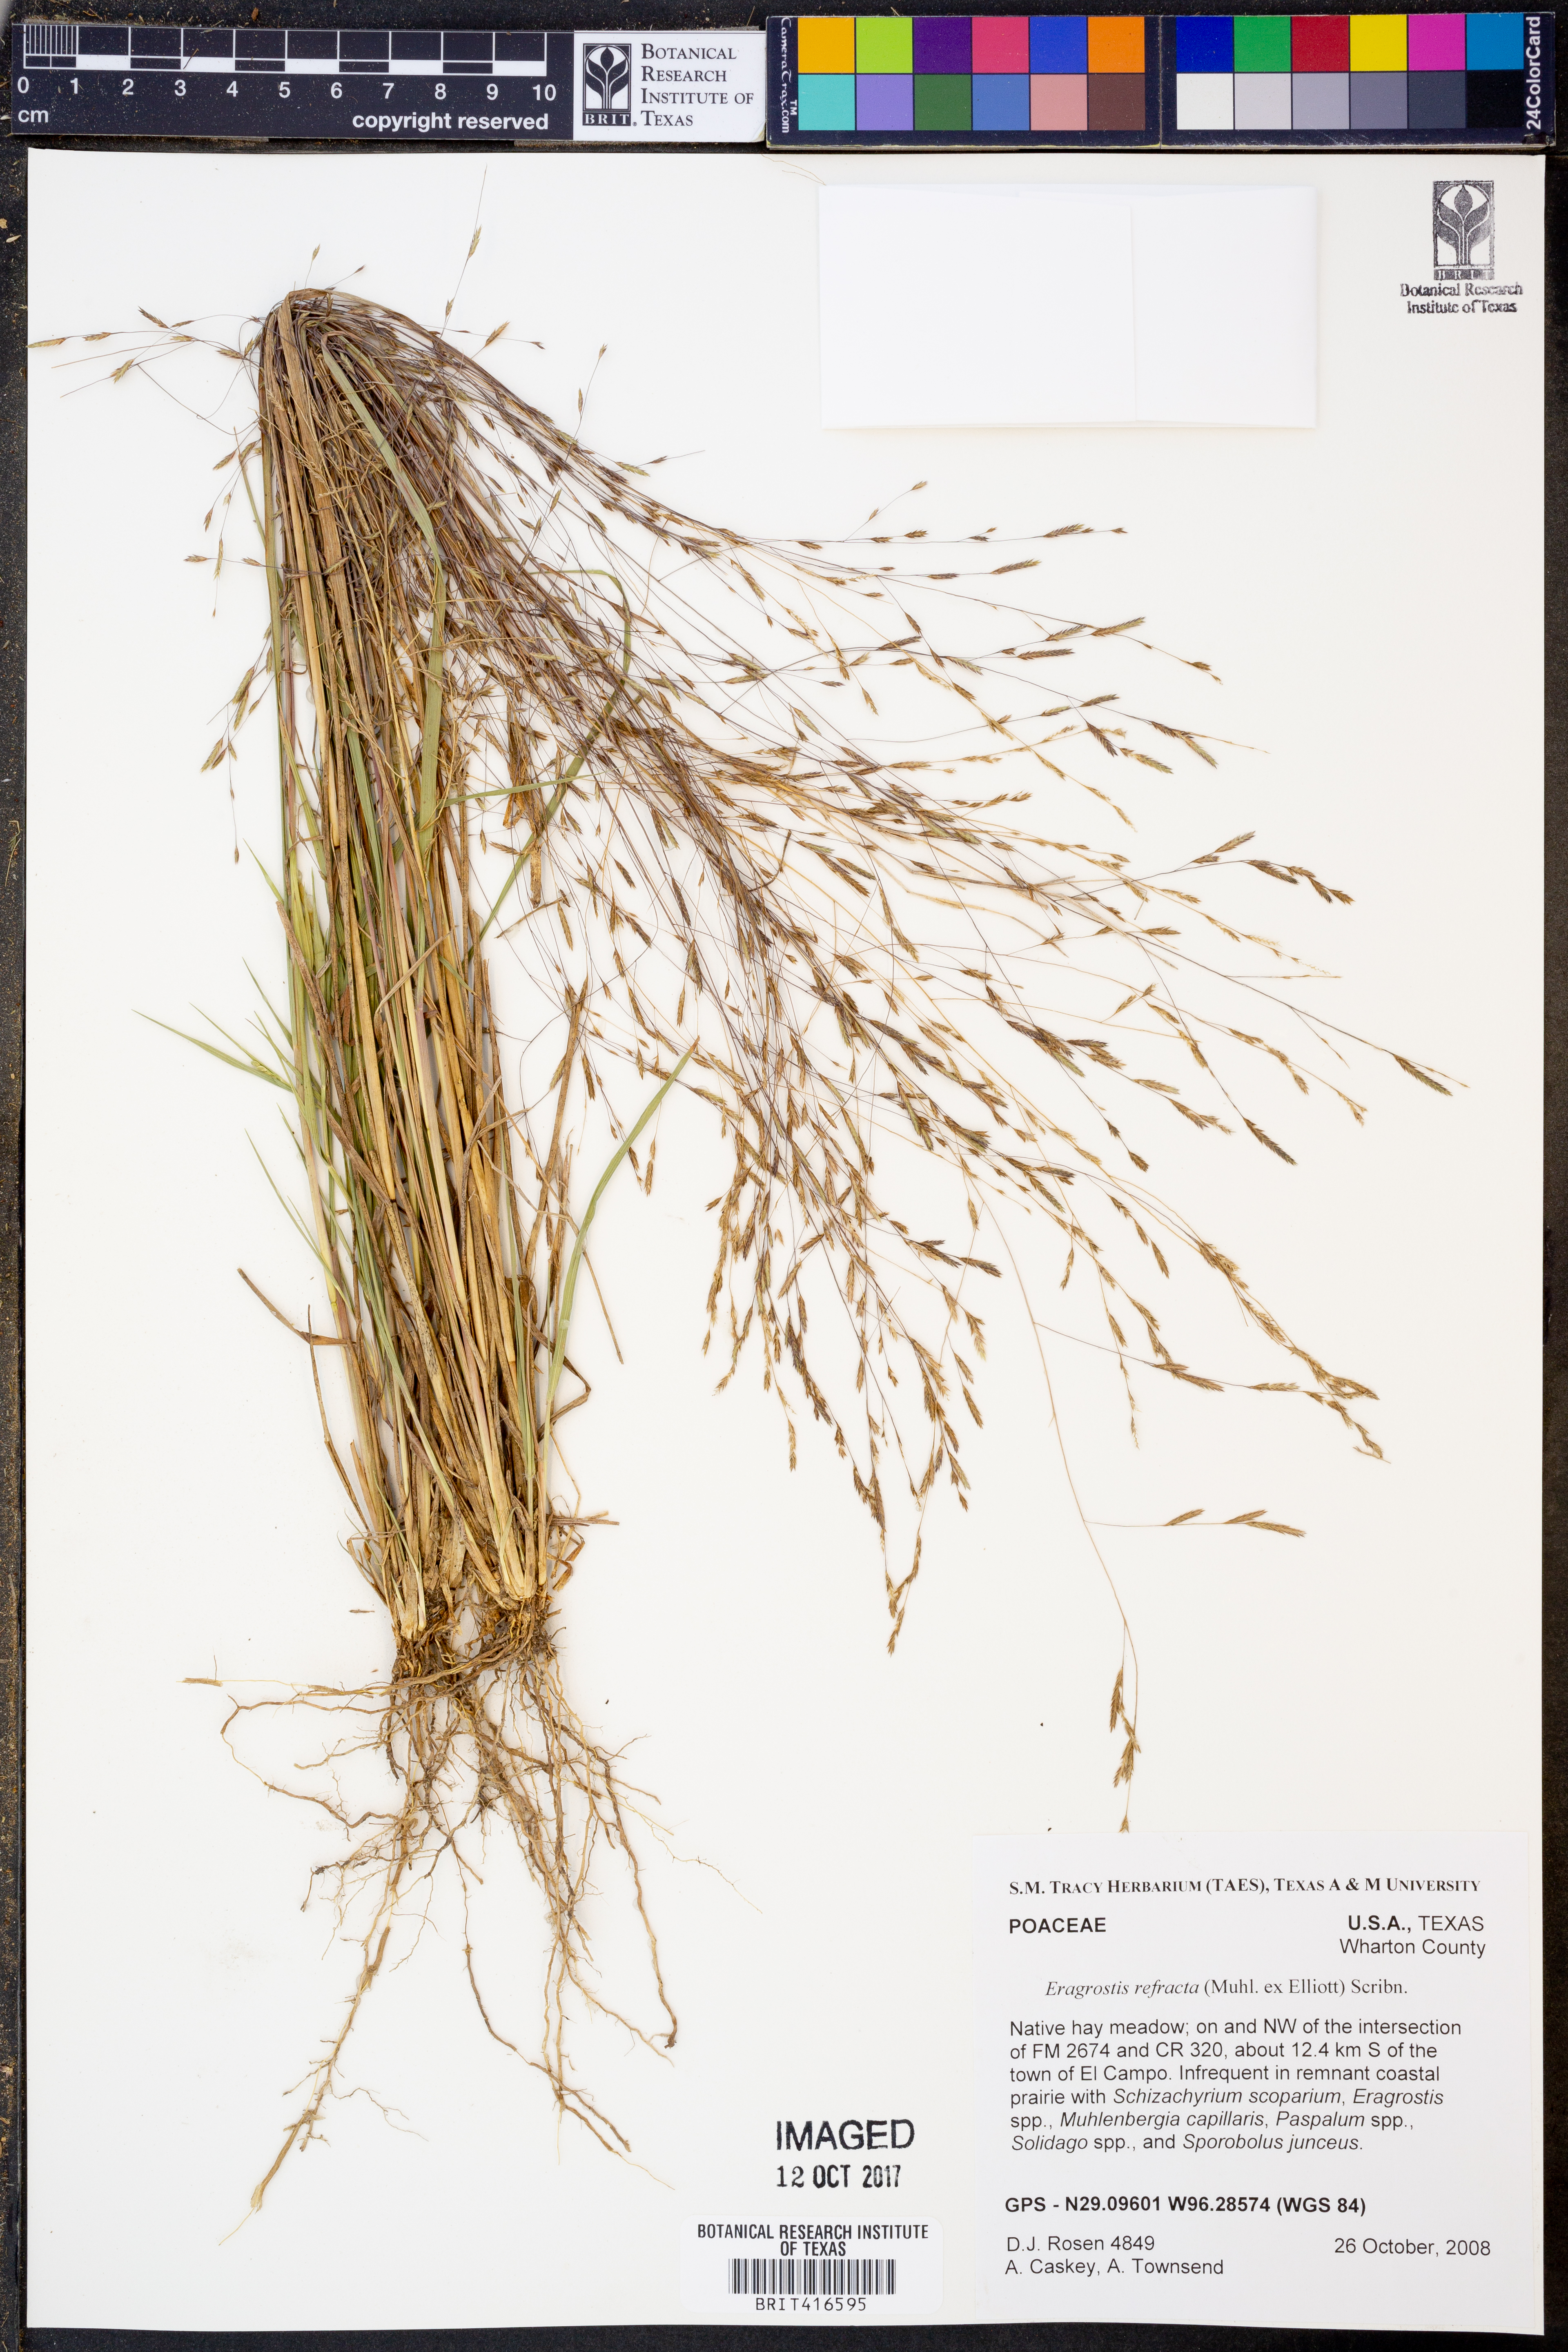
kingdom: Plantae
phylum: Tracheophyta
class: Liliopsida
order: Poales
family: Poaceae
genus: Eragrostis
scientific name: Eragrostis refracta
